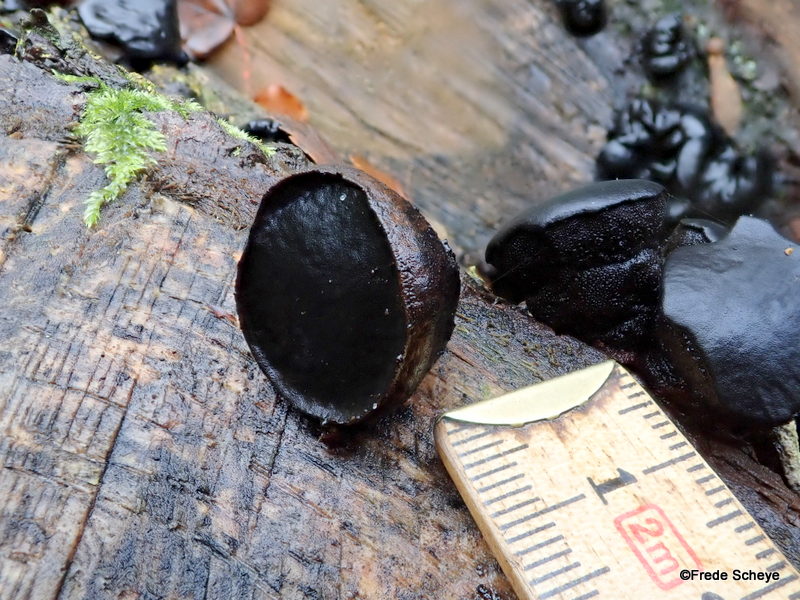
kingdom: Fungi
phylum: Ascomycota
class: Leotiomycetes
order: Phacidiales
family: Phacidiaceae
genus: Bulgaria
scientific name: Bulgaria inquinans
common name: afsmittende topsvamp
